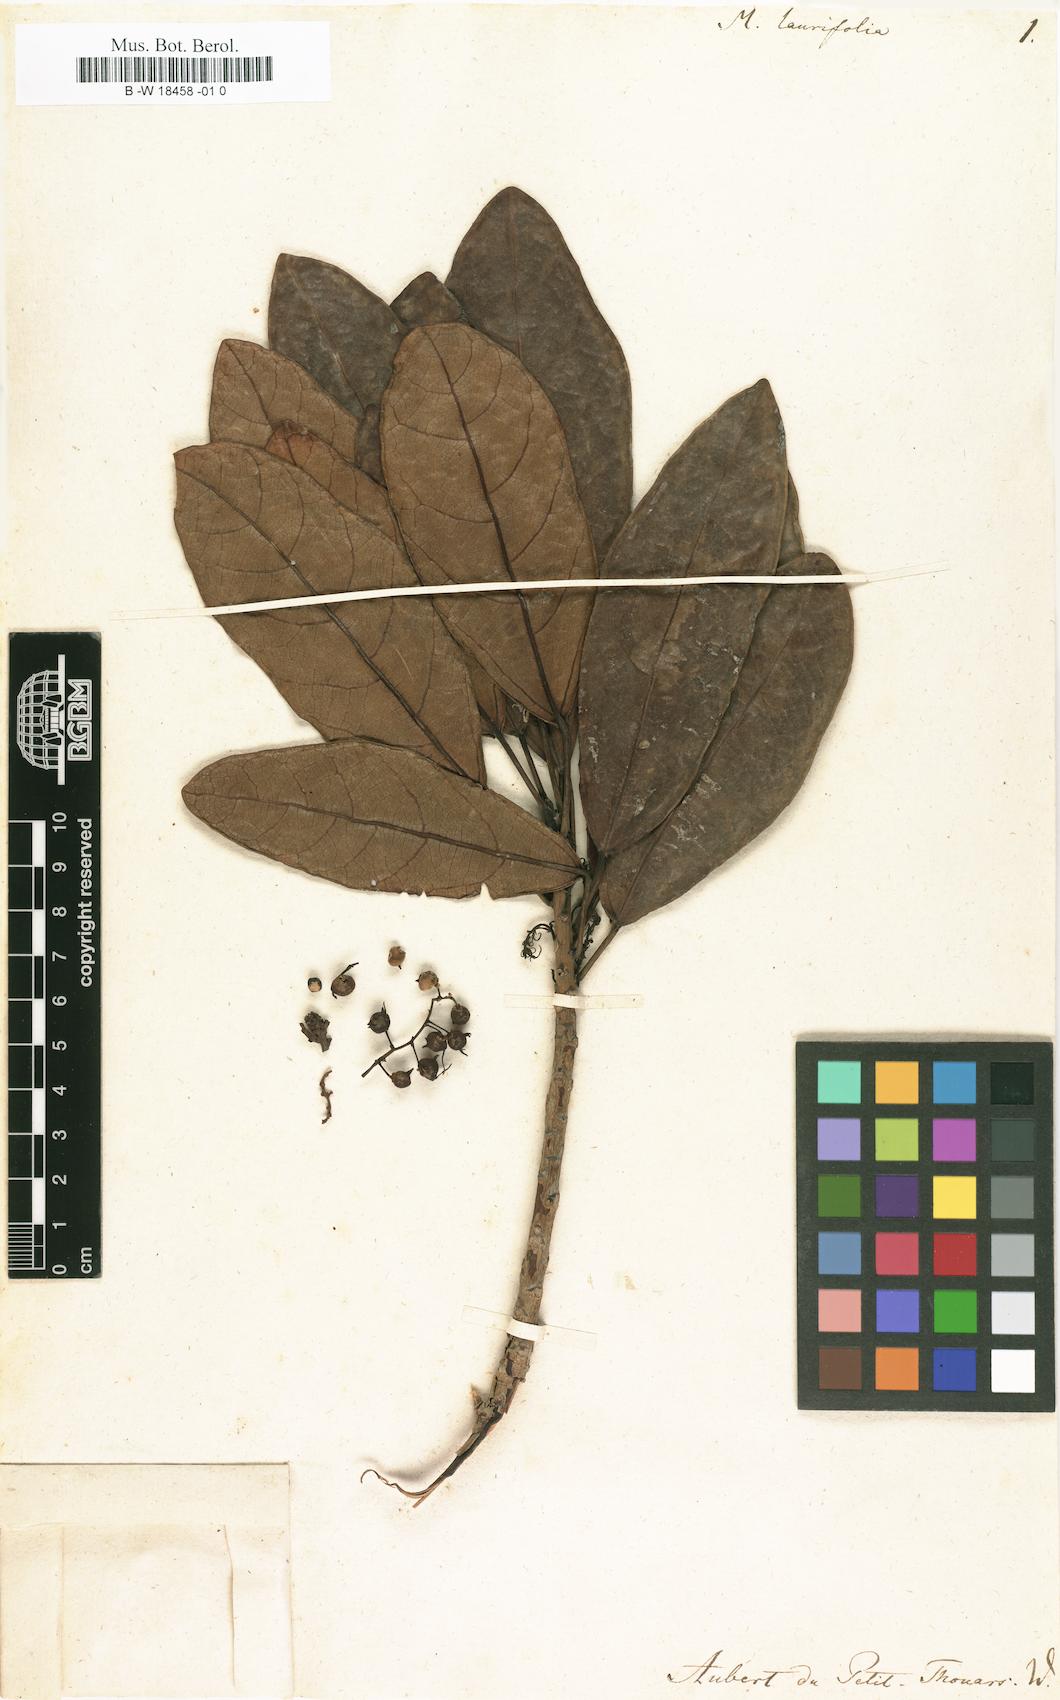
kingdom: Plantae
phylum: Tracheophyta
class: Magnoliopsida
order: Malpighiales
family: Euphorbiaceae
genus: Macaranga
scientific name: Macaranga
